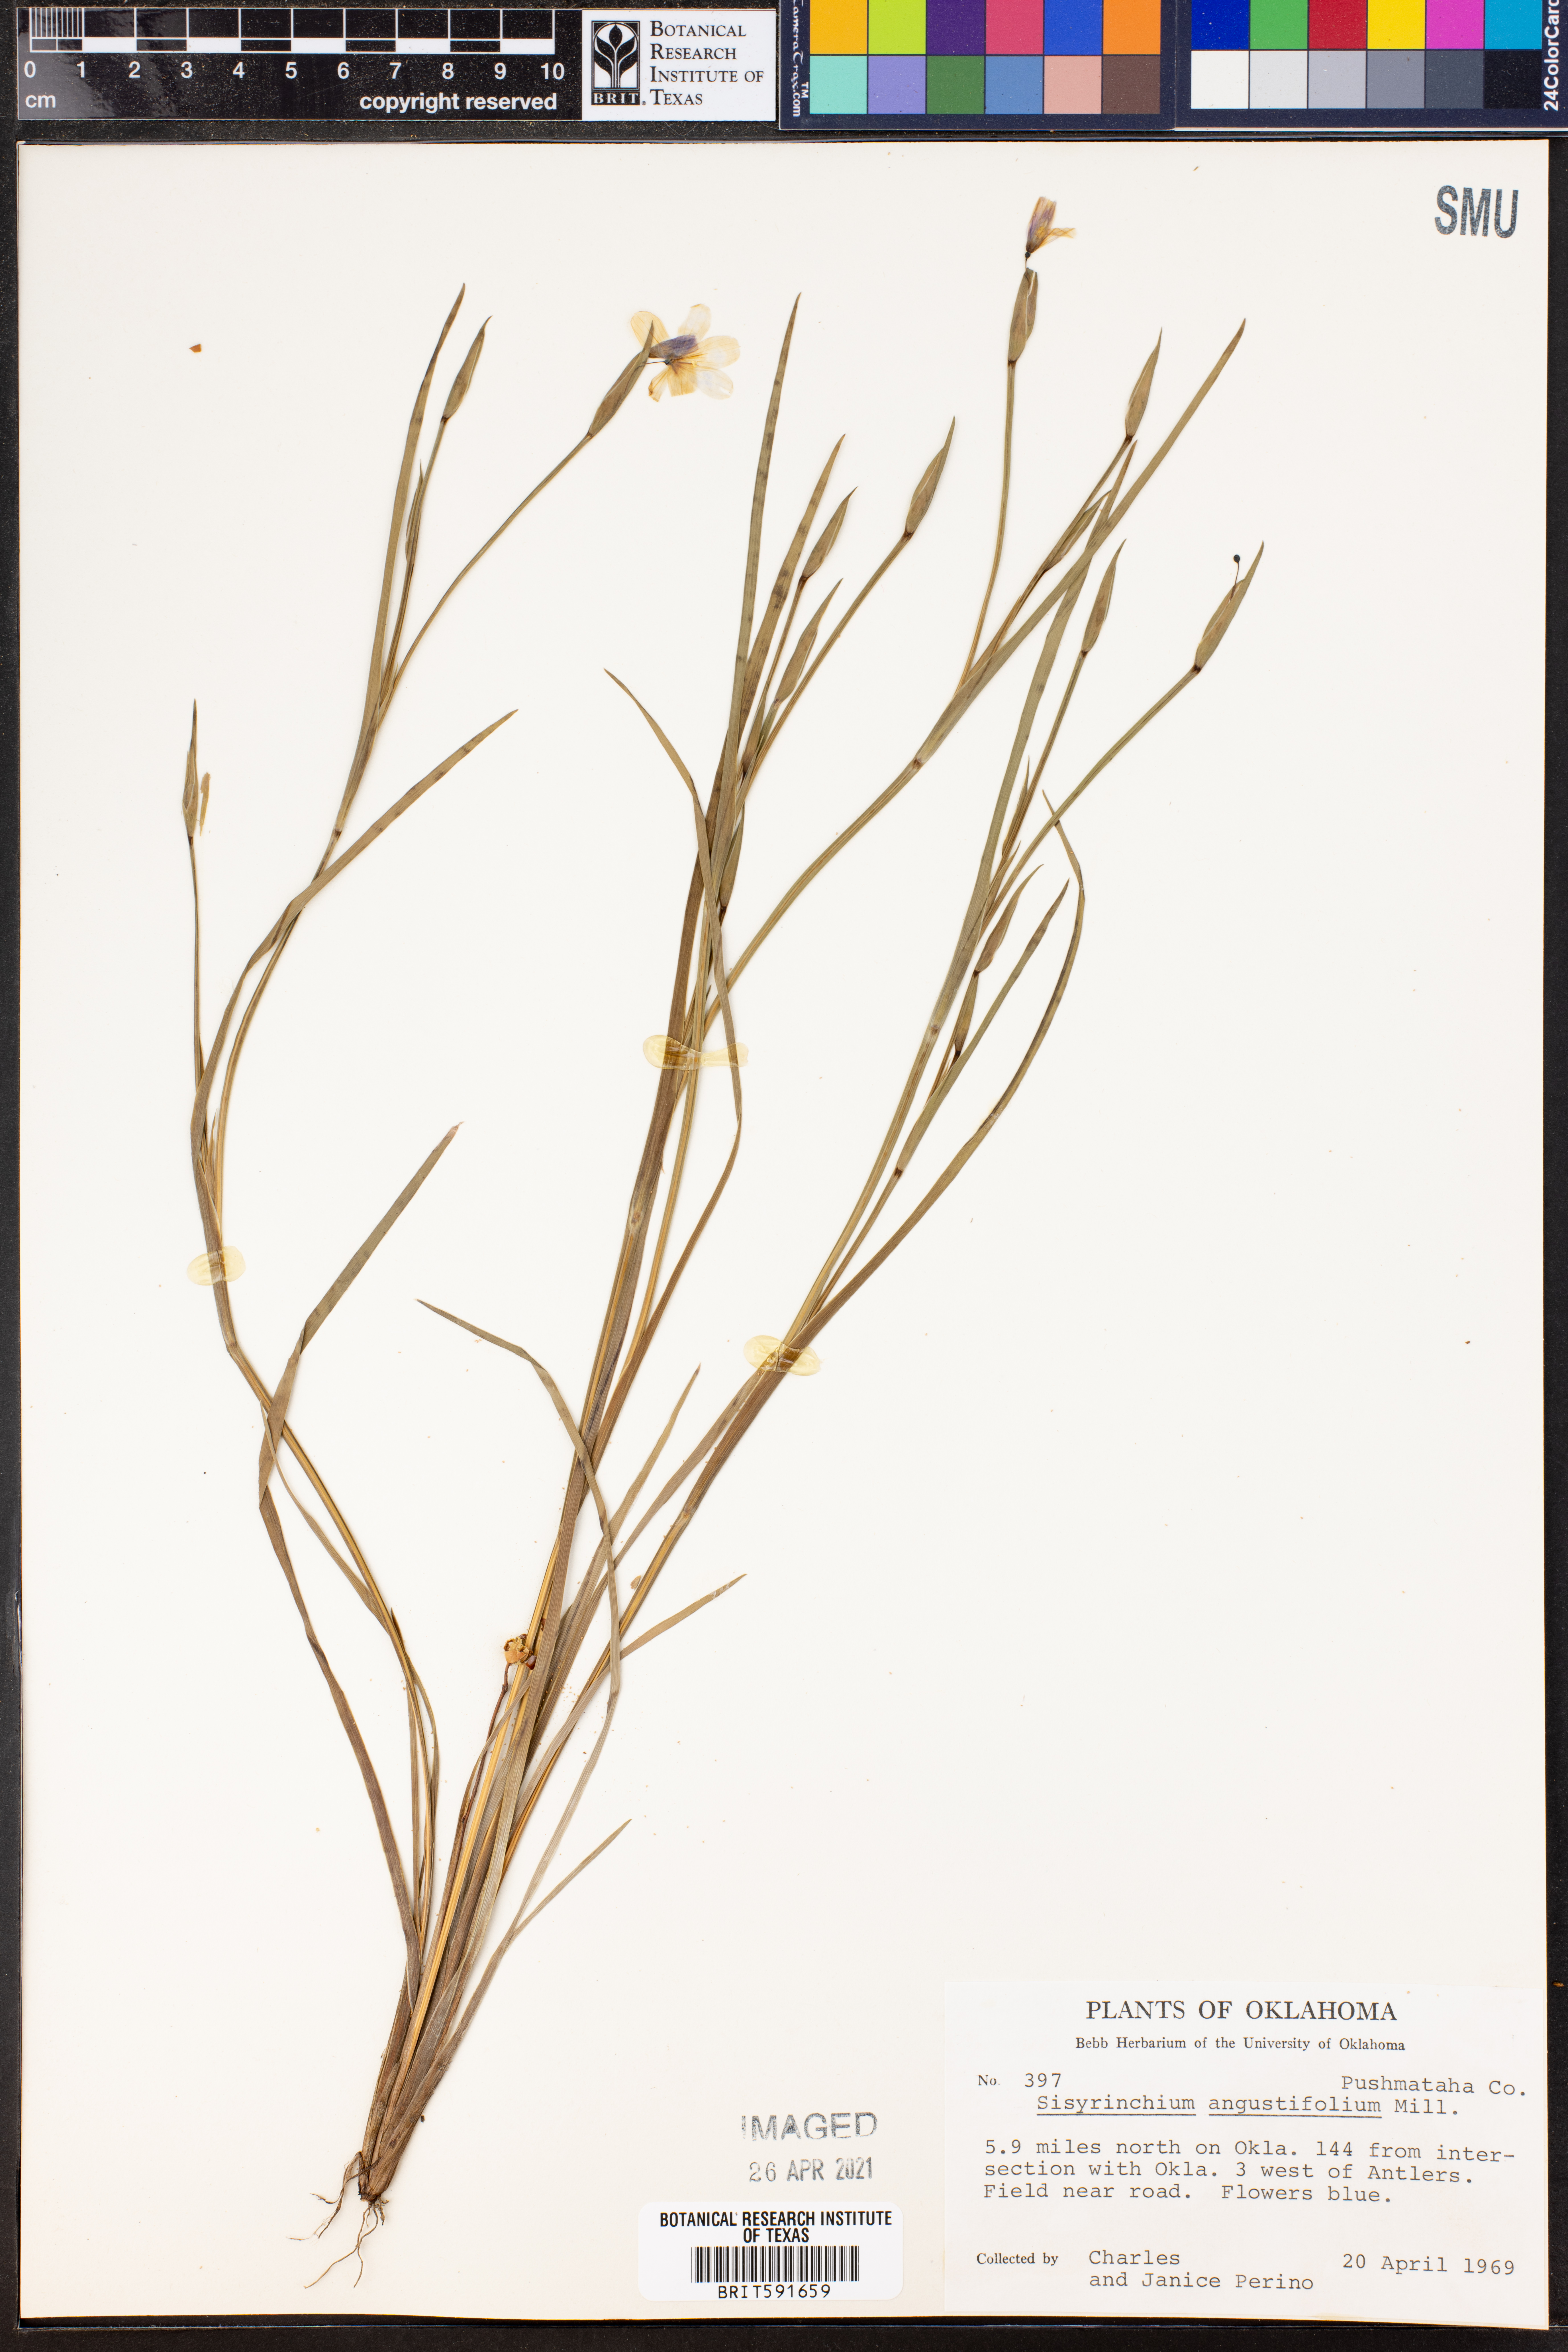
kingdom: Plantae
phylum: Tracheophyta
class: Liliopsida
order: Asparagales
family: Iridaceae
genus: Sisyrinchium
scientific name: Sisyrinchium angustifolium
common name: Narrow-leaf blue-eyed-grass
